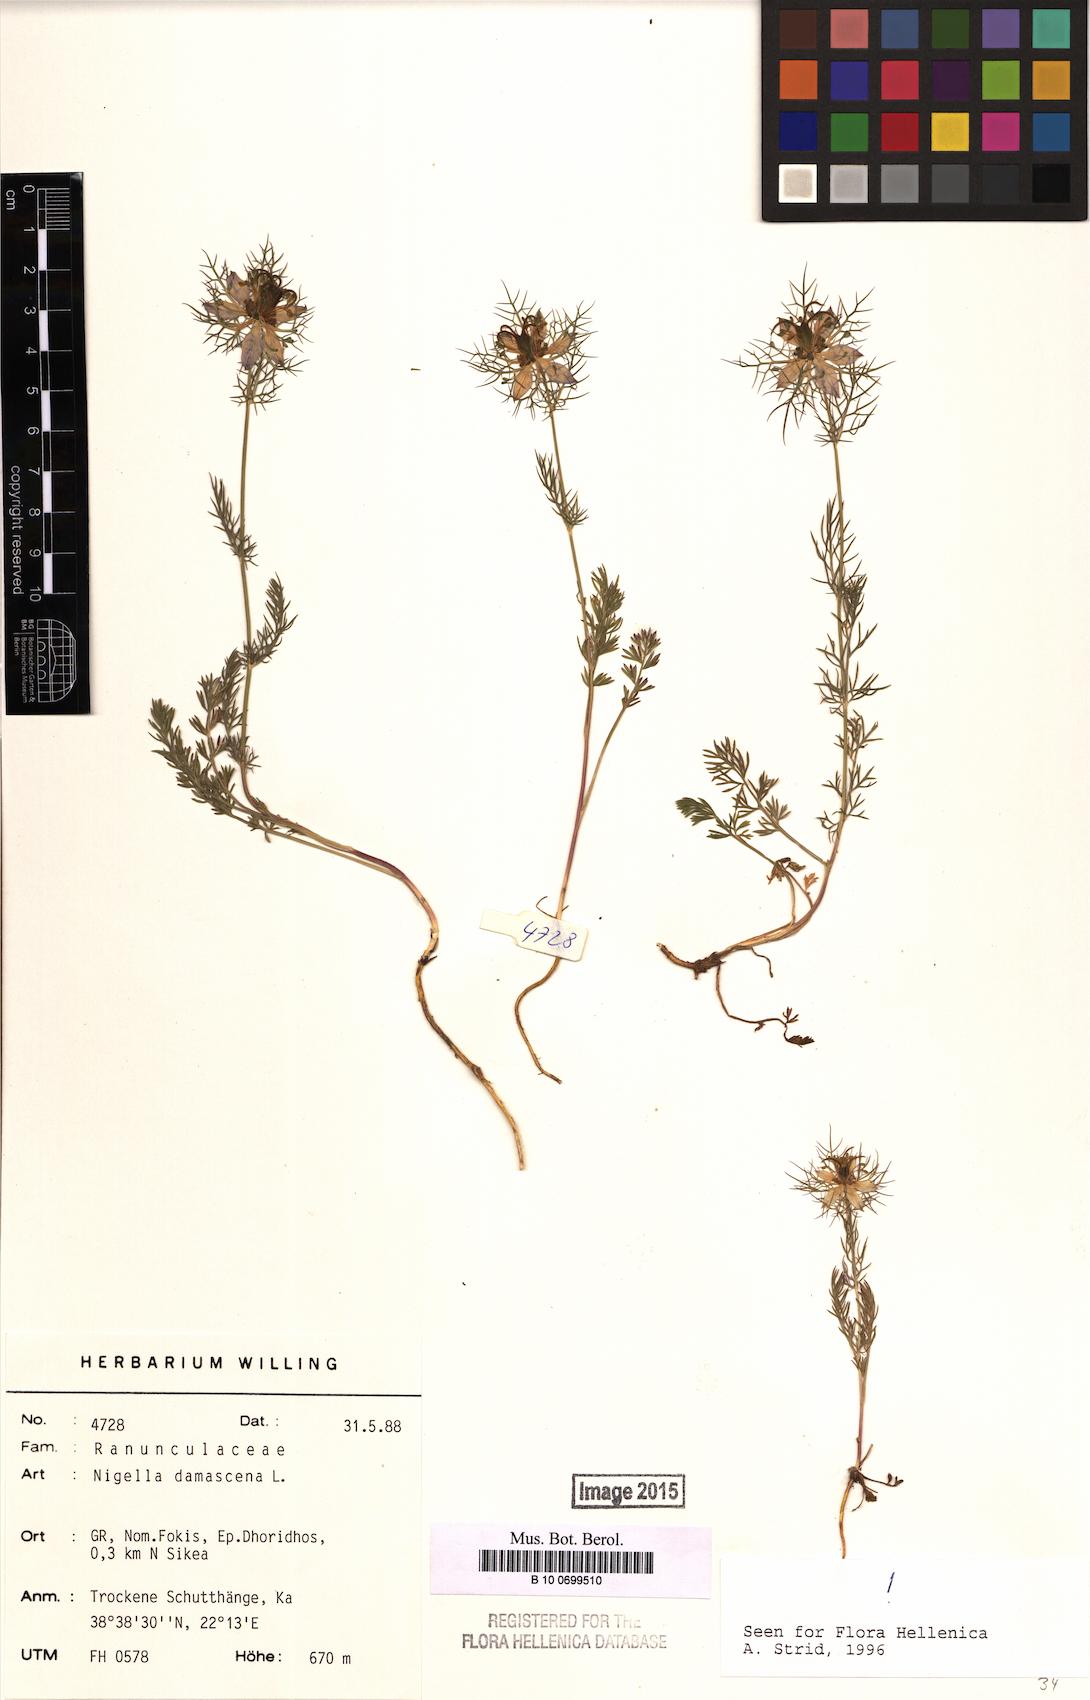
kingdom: Plantae
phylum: Tracheophyta
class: Magnoliopsida
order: Ranunculales
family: Ranunculaceae
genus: Nigella
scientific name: Nigella damascena
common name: Love-in-a-mist
